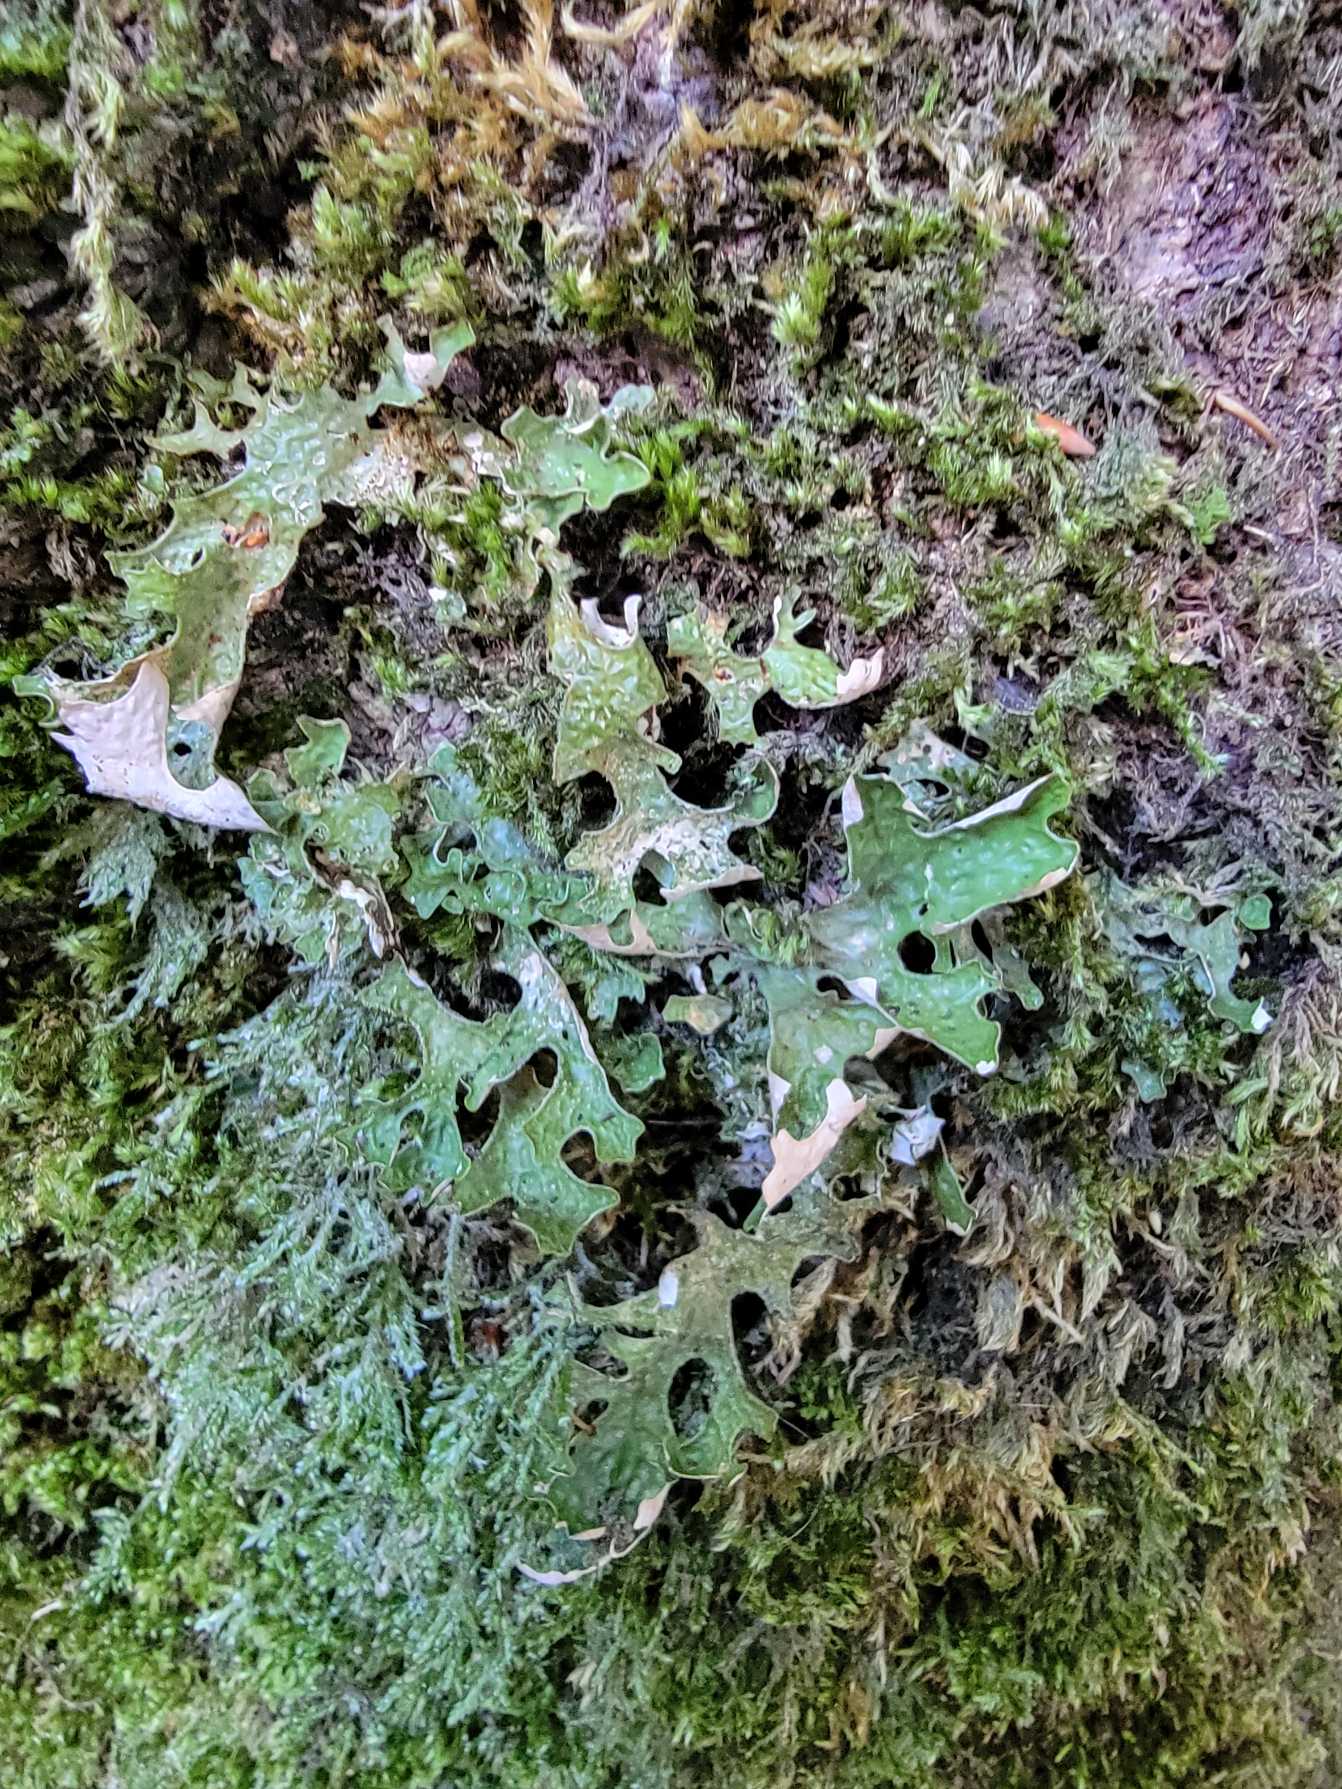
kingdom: Fungi
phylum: Ascomycota
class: Lecanoromycetes
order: Peltigerales
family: Lobariaceae
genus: Lobaria
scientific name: Lobaria pulmonaria
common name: Almindelig lungelav
